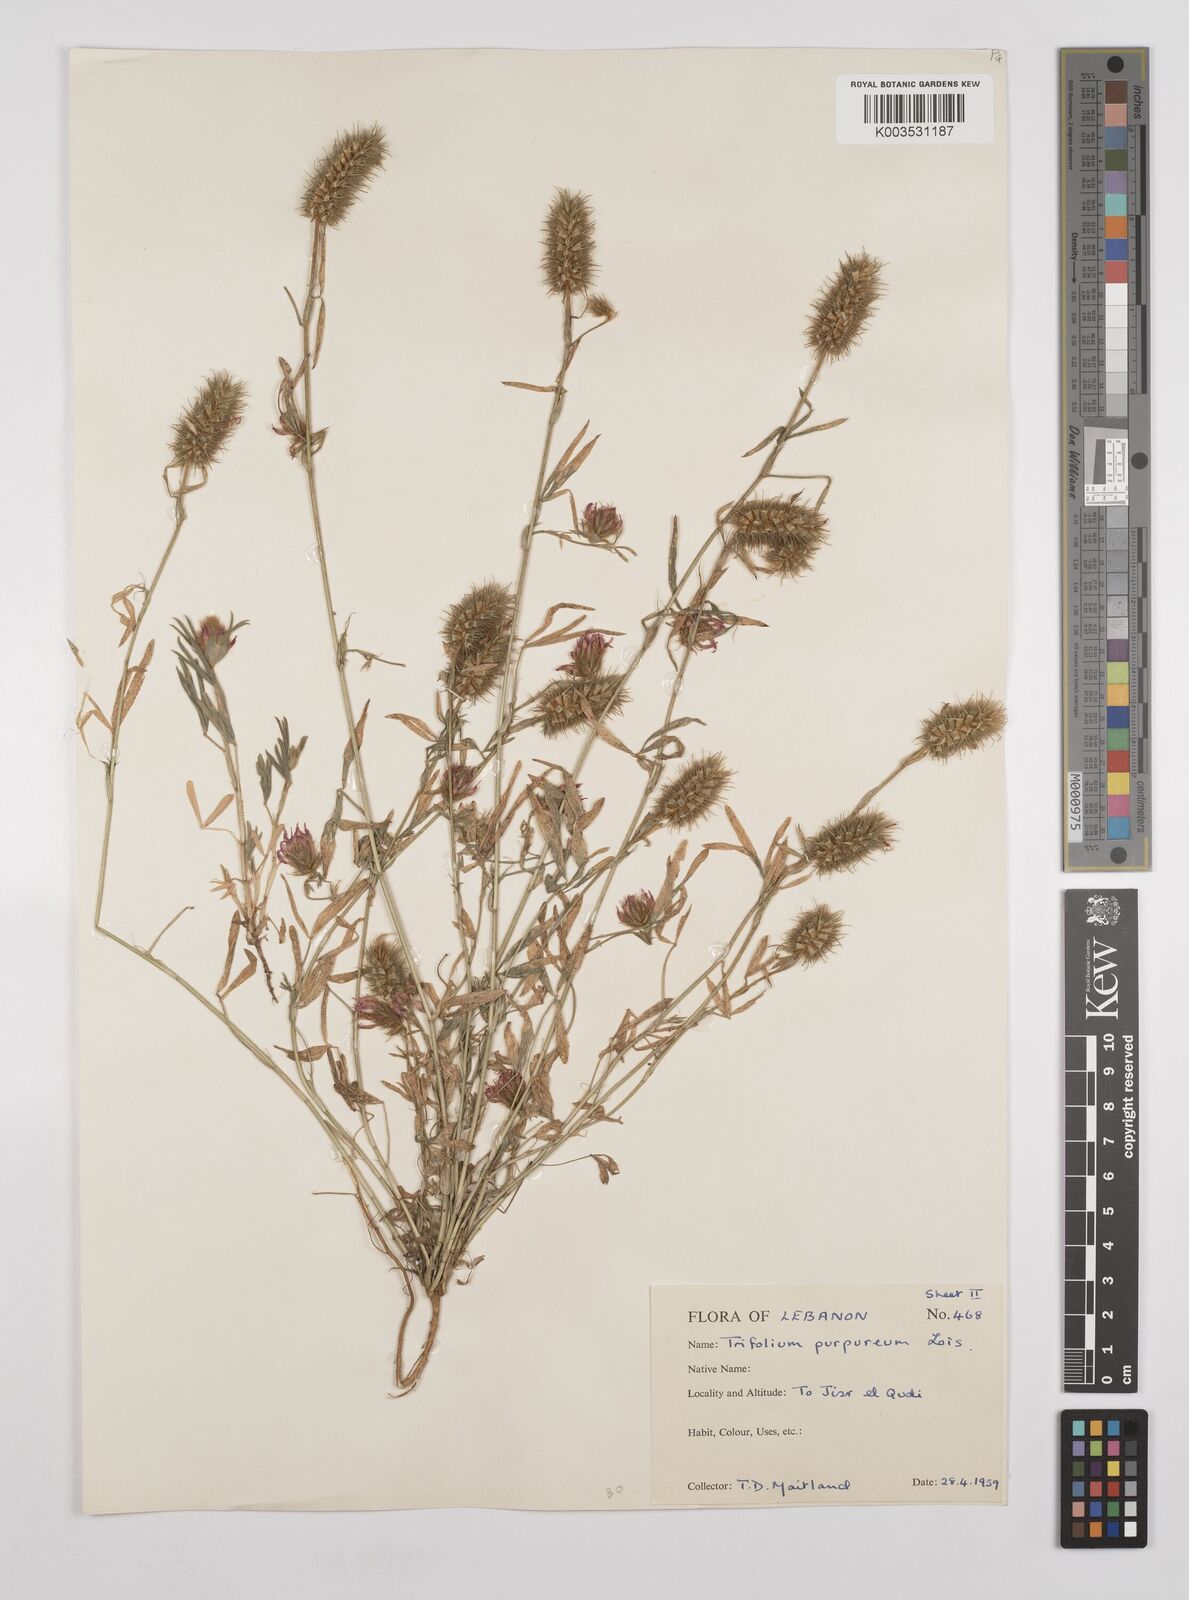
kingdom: Plantae
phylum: Tracheophyta
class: Magnoliopsida
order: Fabales
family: Fabaceae
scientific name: Fabaceae
